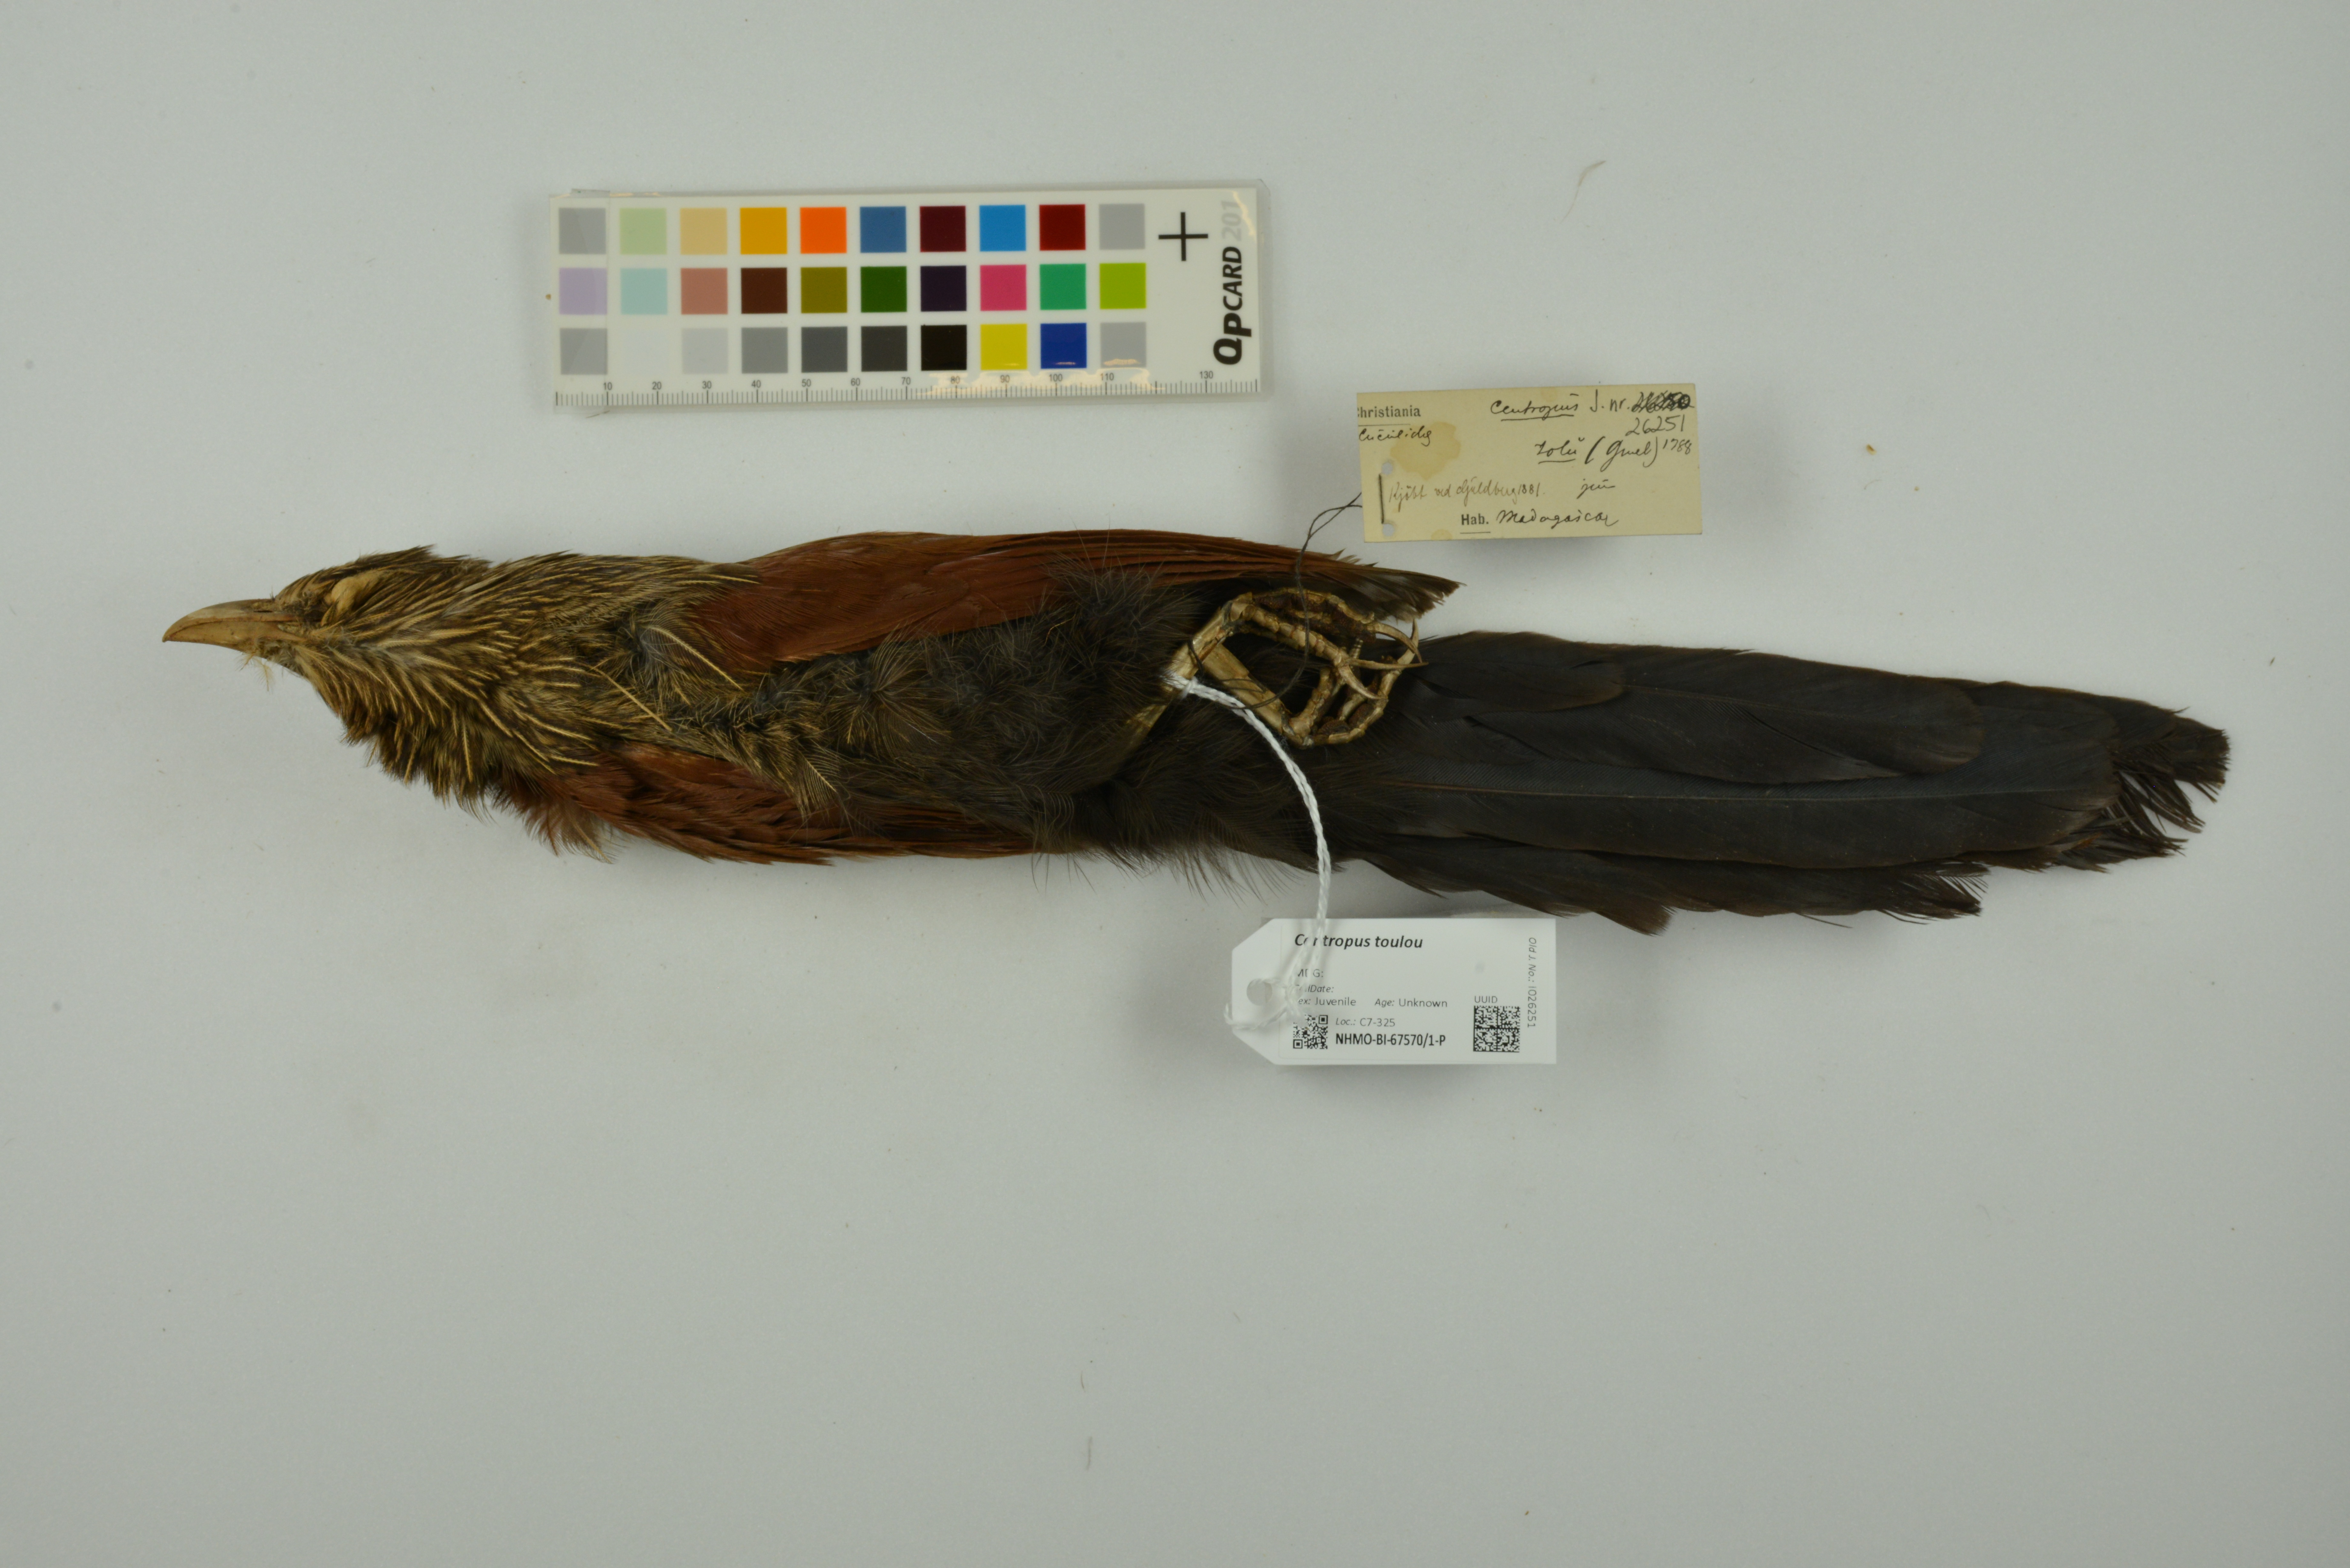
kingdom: Animalia
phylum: Chordata
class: Aves
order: Cuculiformes
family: Cuculidae
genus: Centropus
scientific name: Centropus toulou
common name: Malagasy coucal
